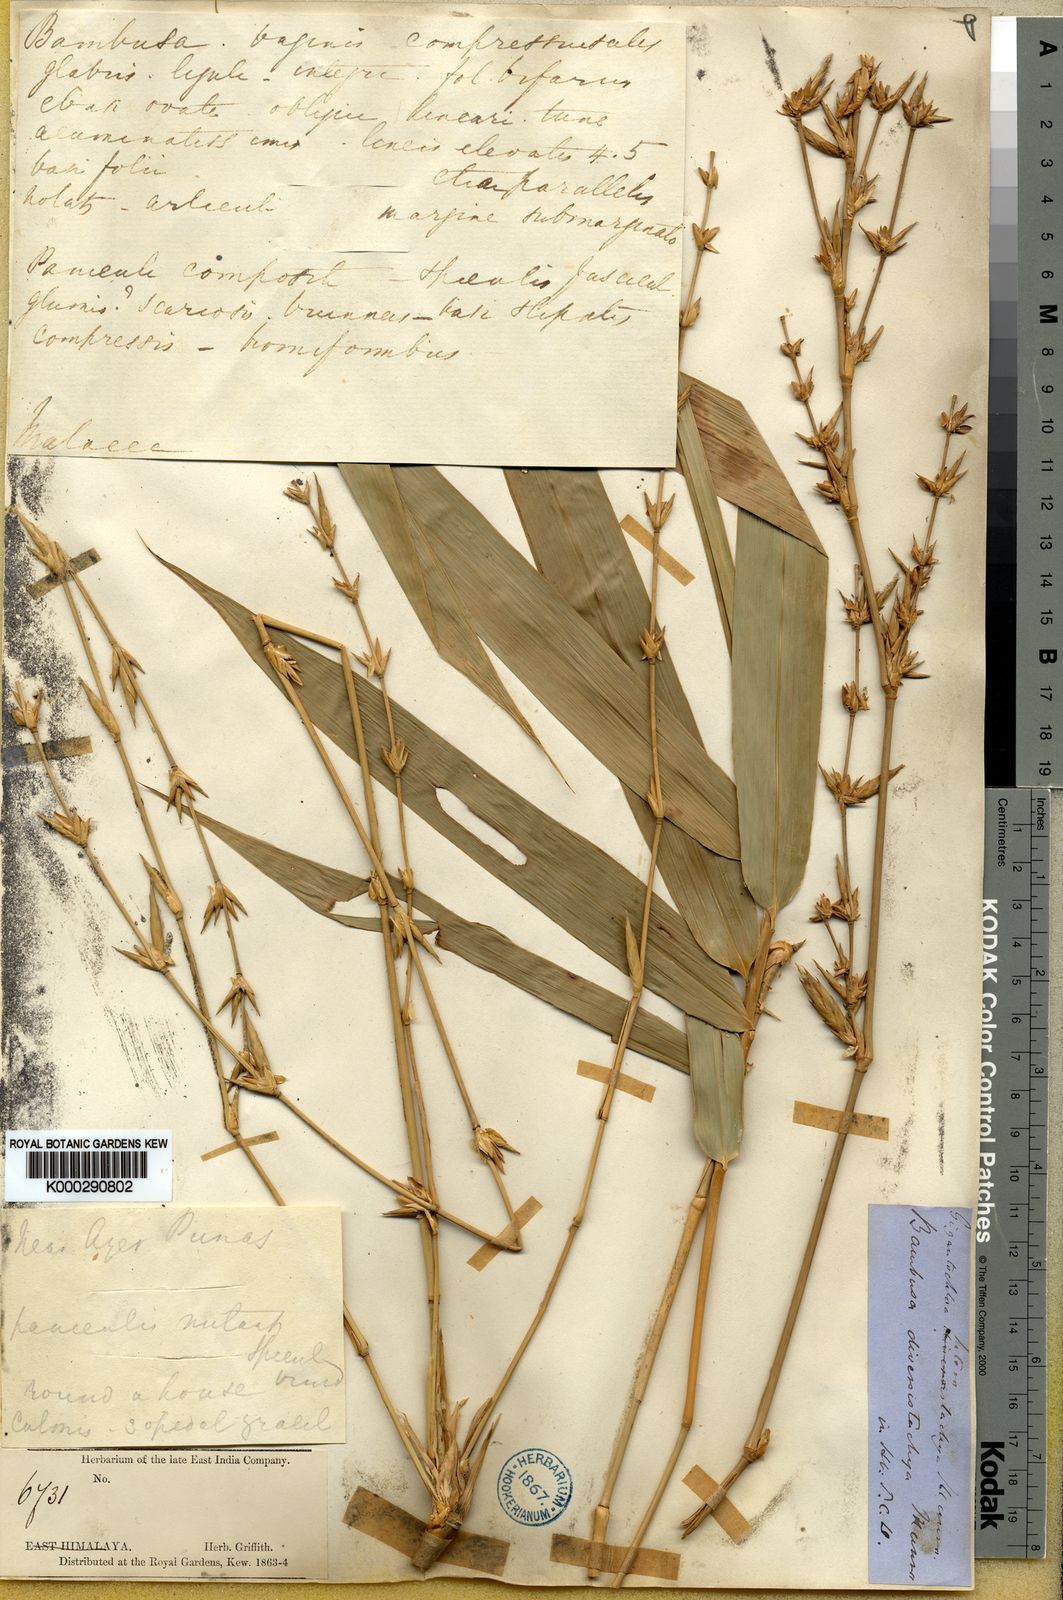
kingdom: Plantae
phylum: Tracheophyta
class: Liliopsida
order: Poales
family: Poaceae
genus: Bambusa
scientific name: Bambusa heterostachya
